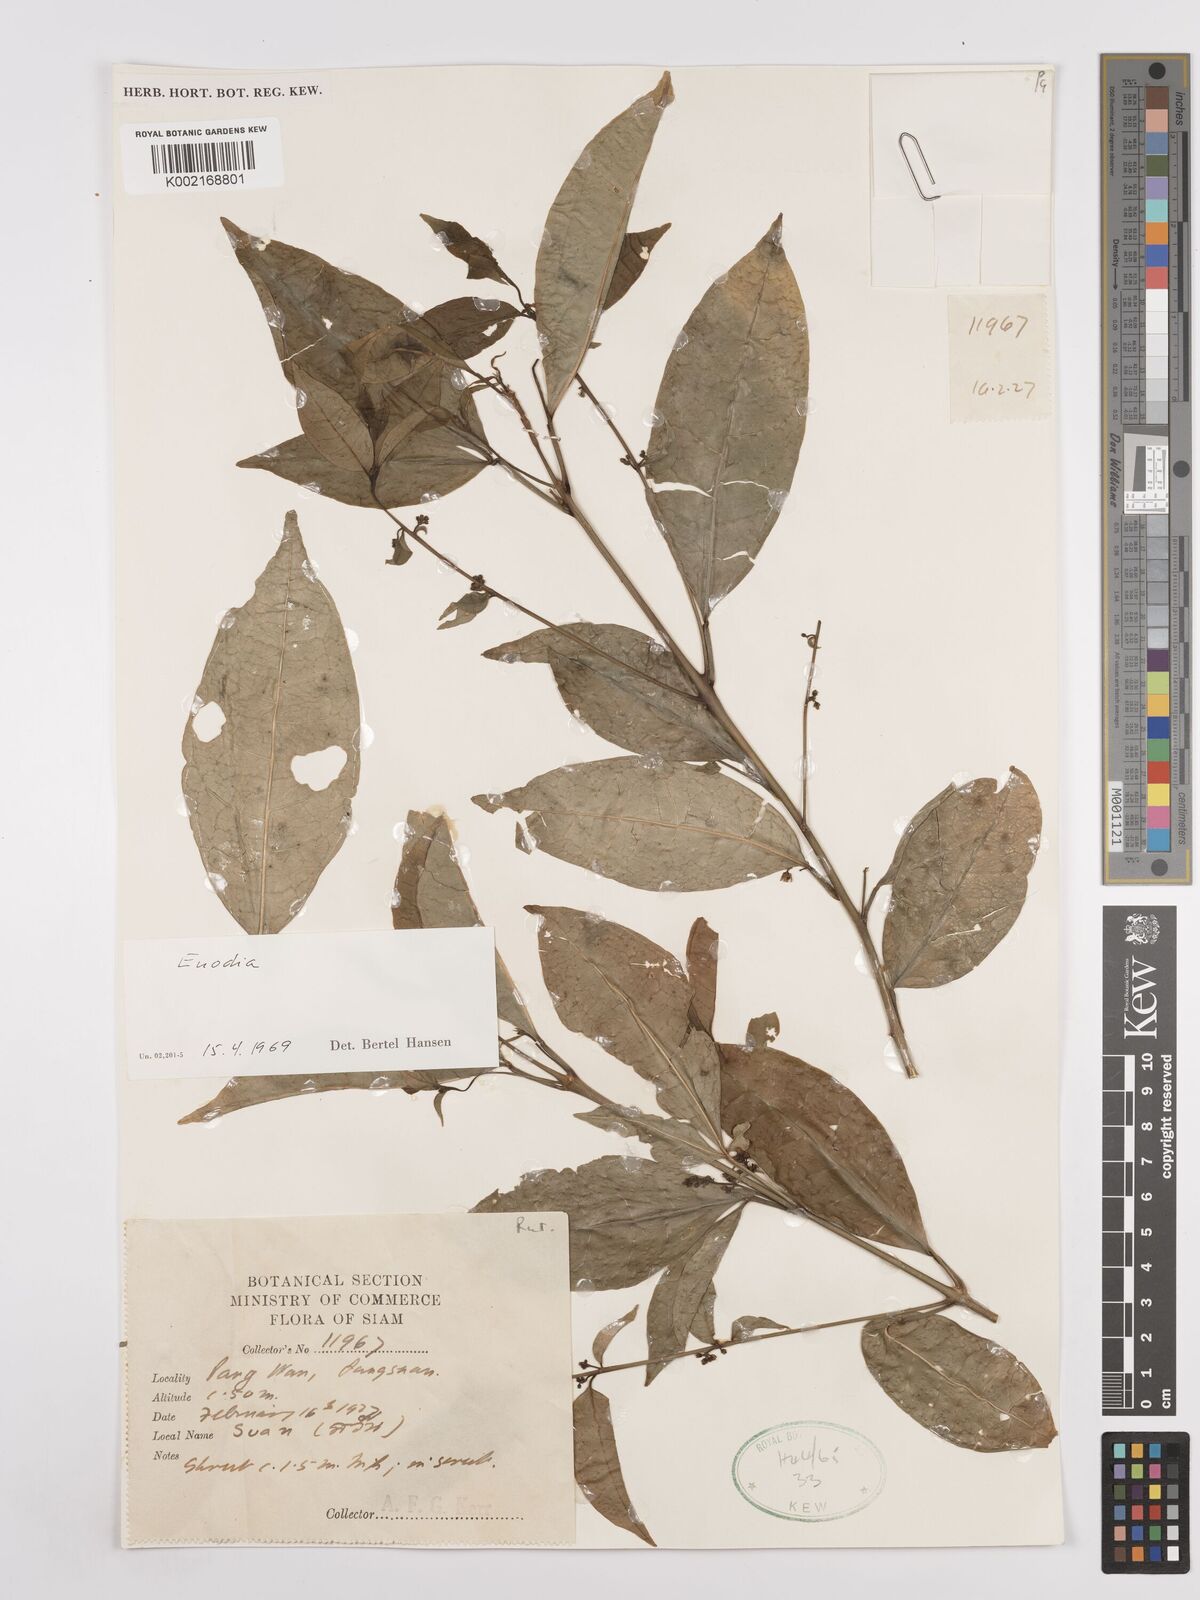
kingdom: Plantae
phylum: Tracheophyta
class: Magnoliopsida
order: Sapindales
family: Rutaceae
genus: Euodia
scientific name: Euodia
